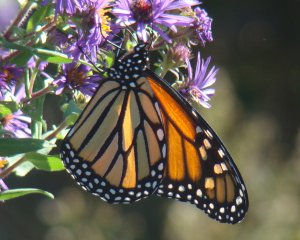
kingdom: Animalia
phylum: Arthropoda
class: Insecta
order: Lepidoptera
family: Nymphalidae
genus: Danaus
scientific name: Danaus plexippus
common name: Monarch
